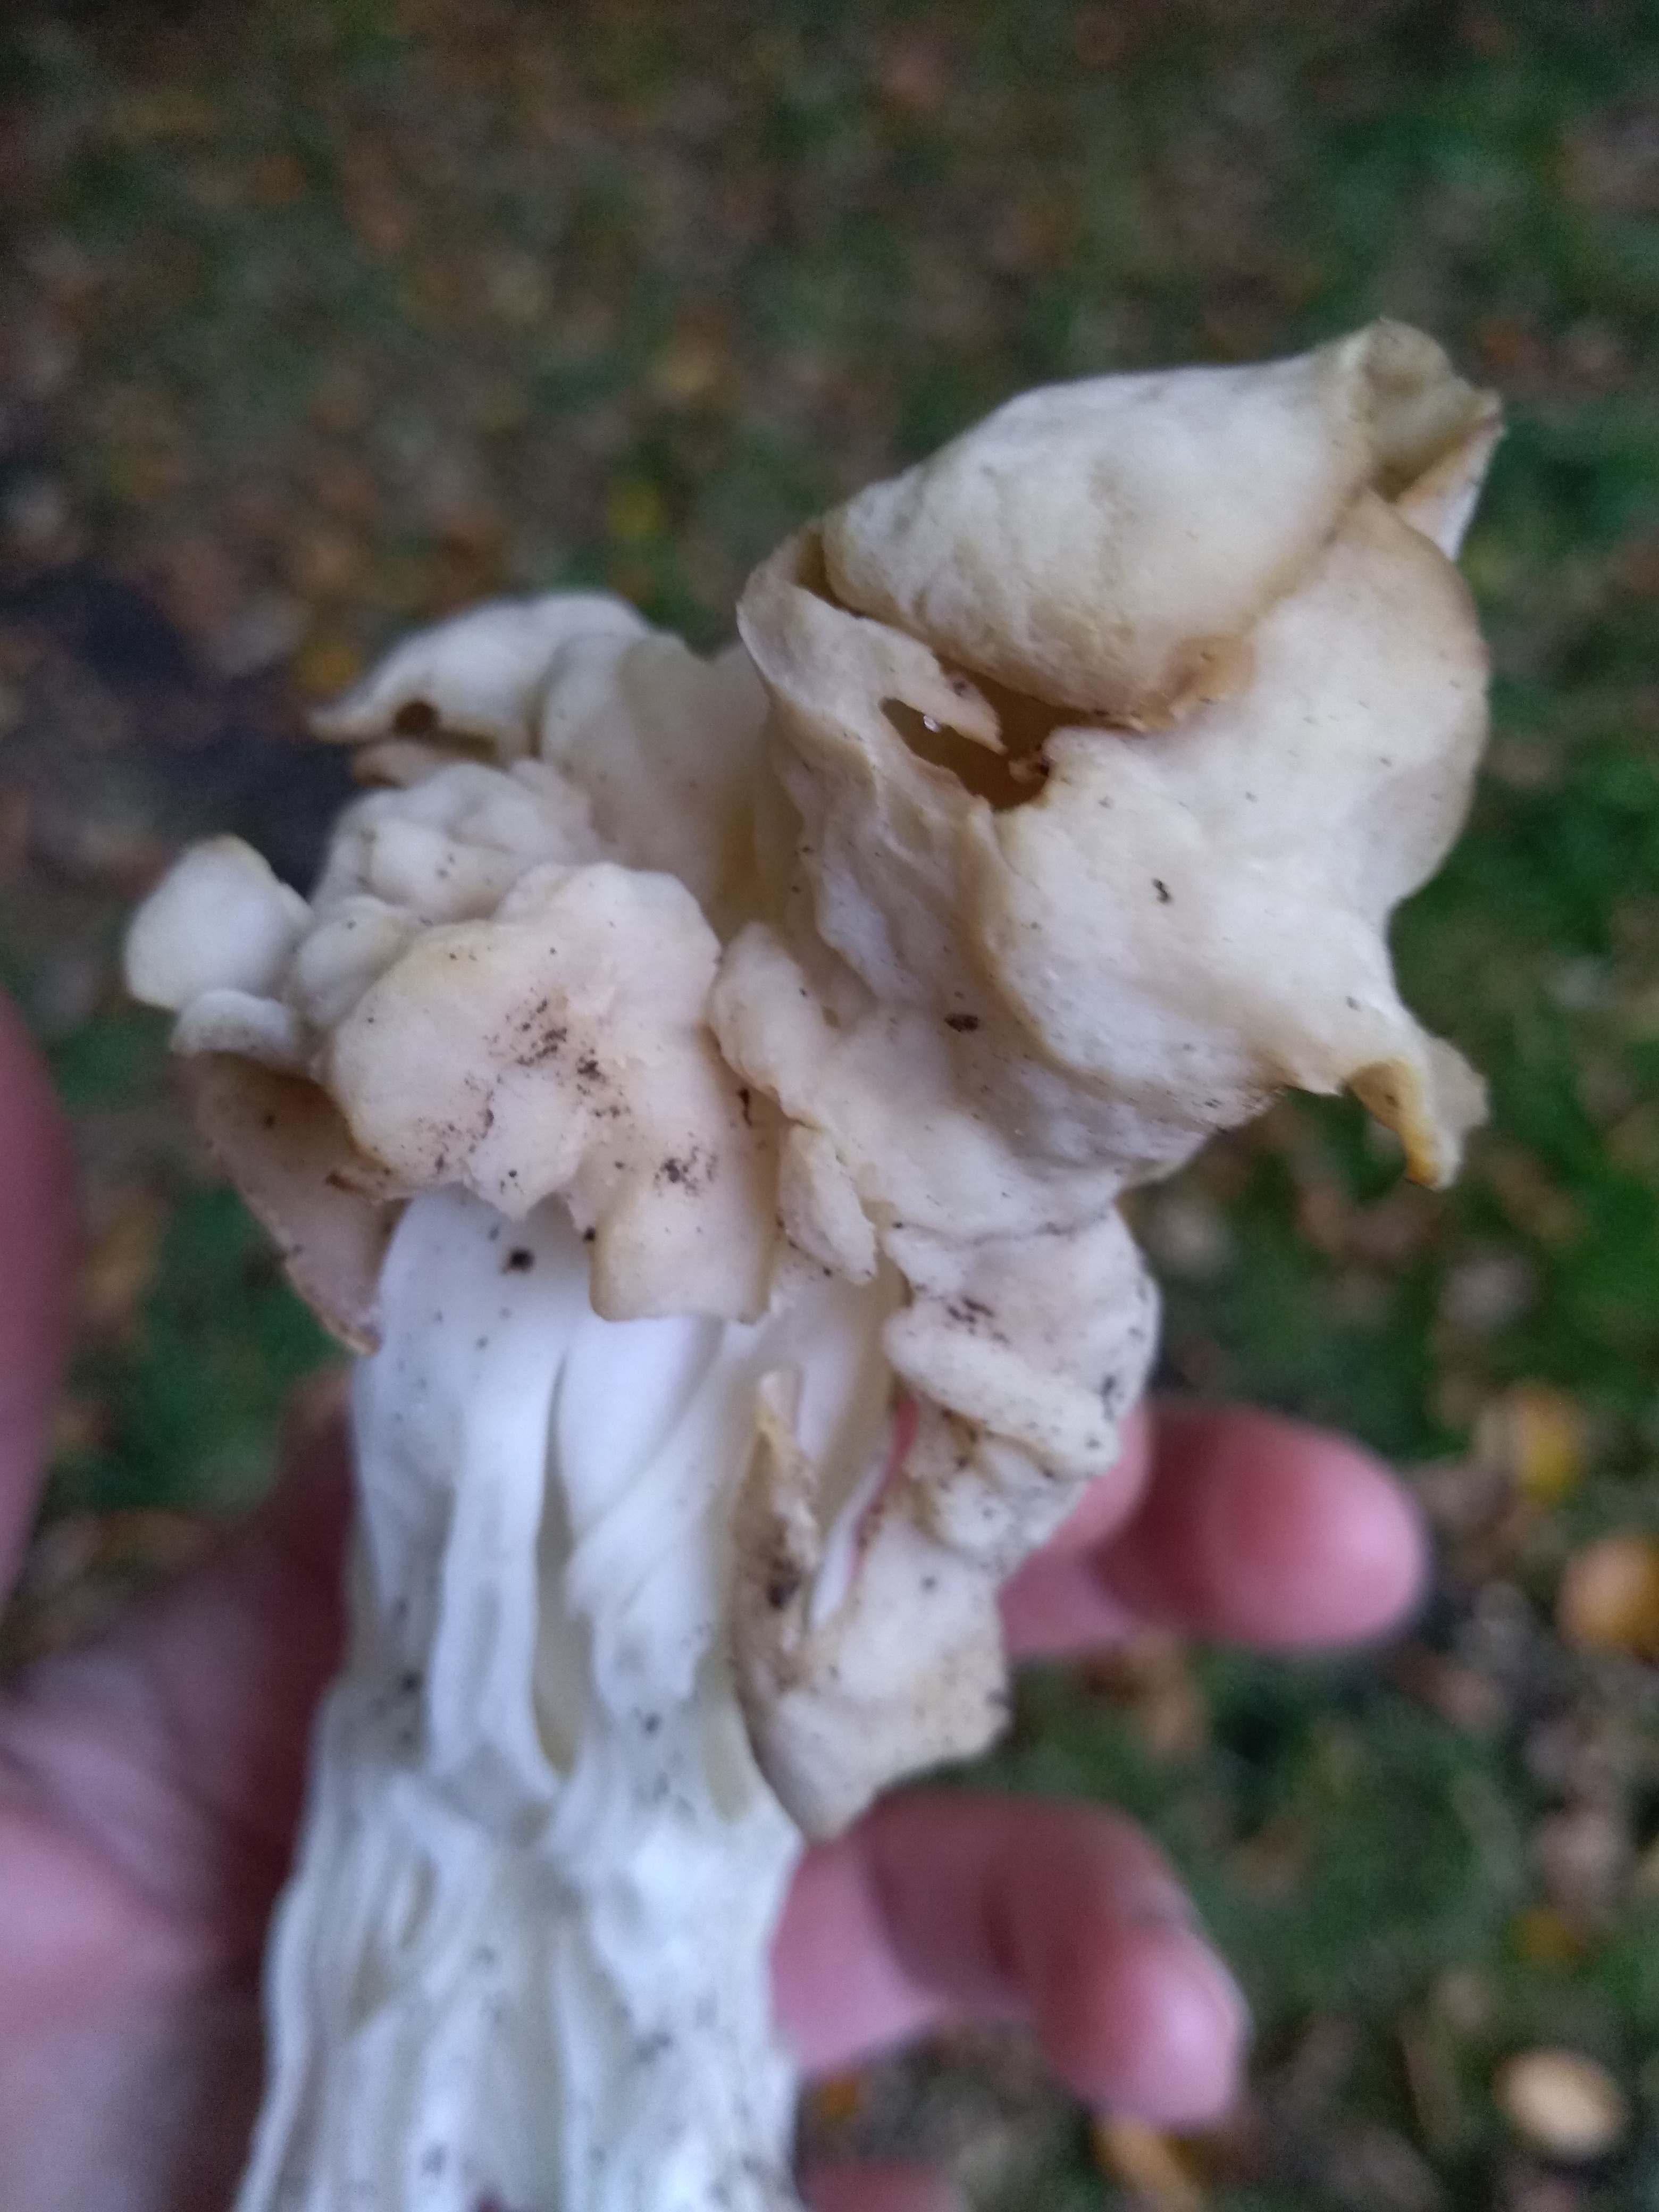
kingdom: Fungi
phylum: Ascomycota
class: Pezizomycetes
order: Pezizales
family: Helvellaceae
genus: Helvella
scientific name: Helvella crispa
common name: kruset foldhat
